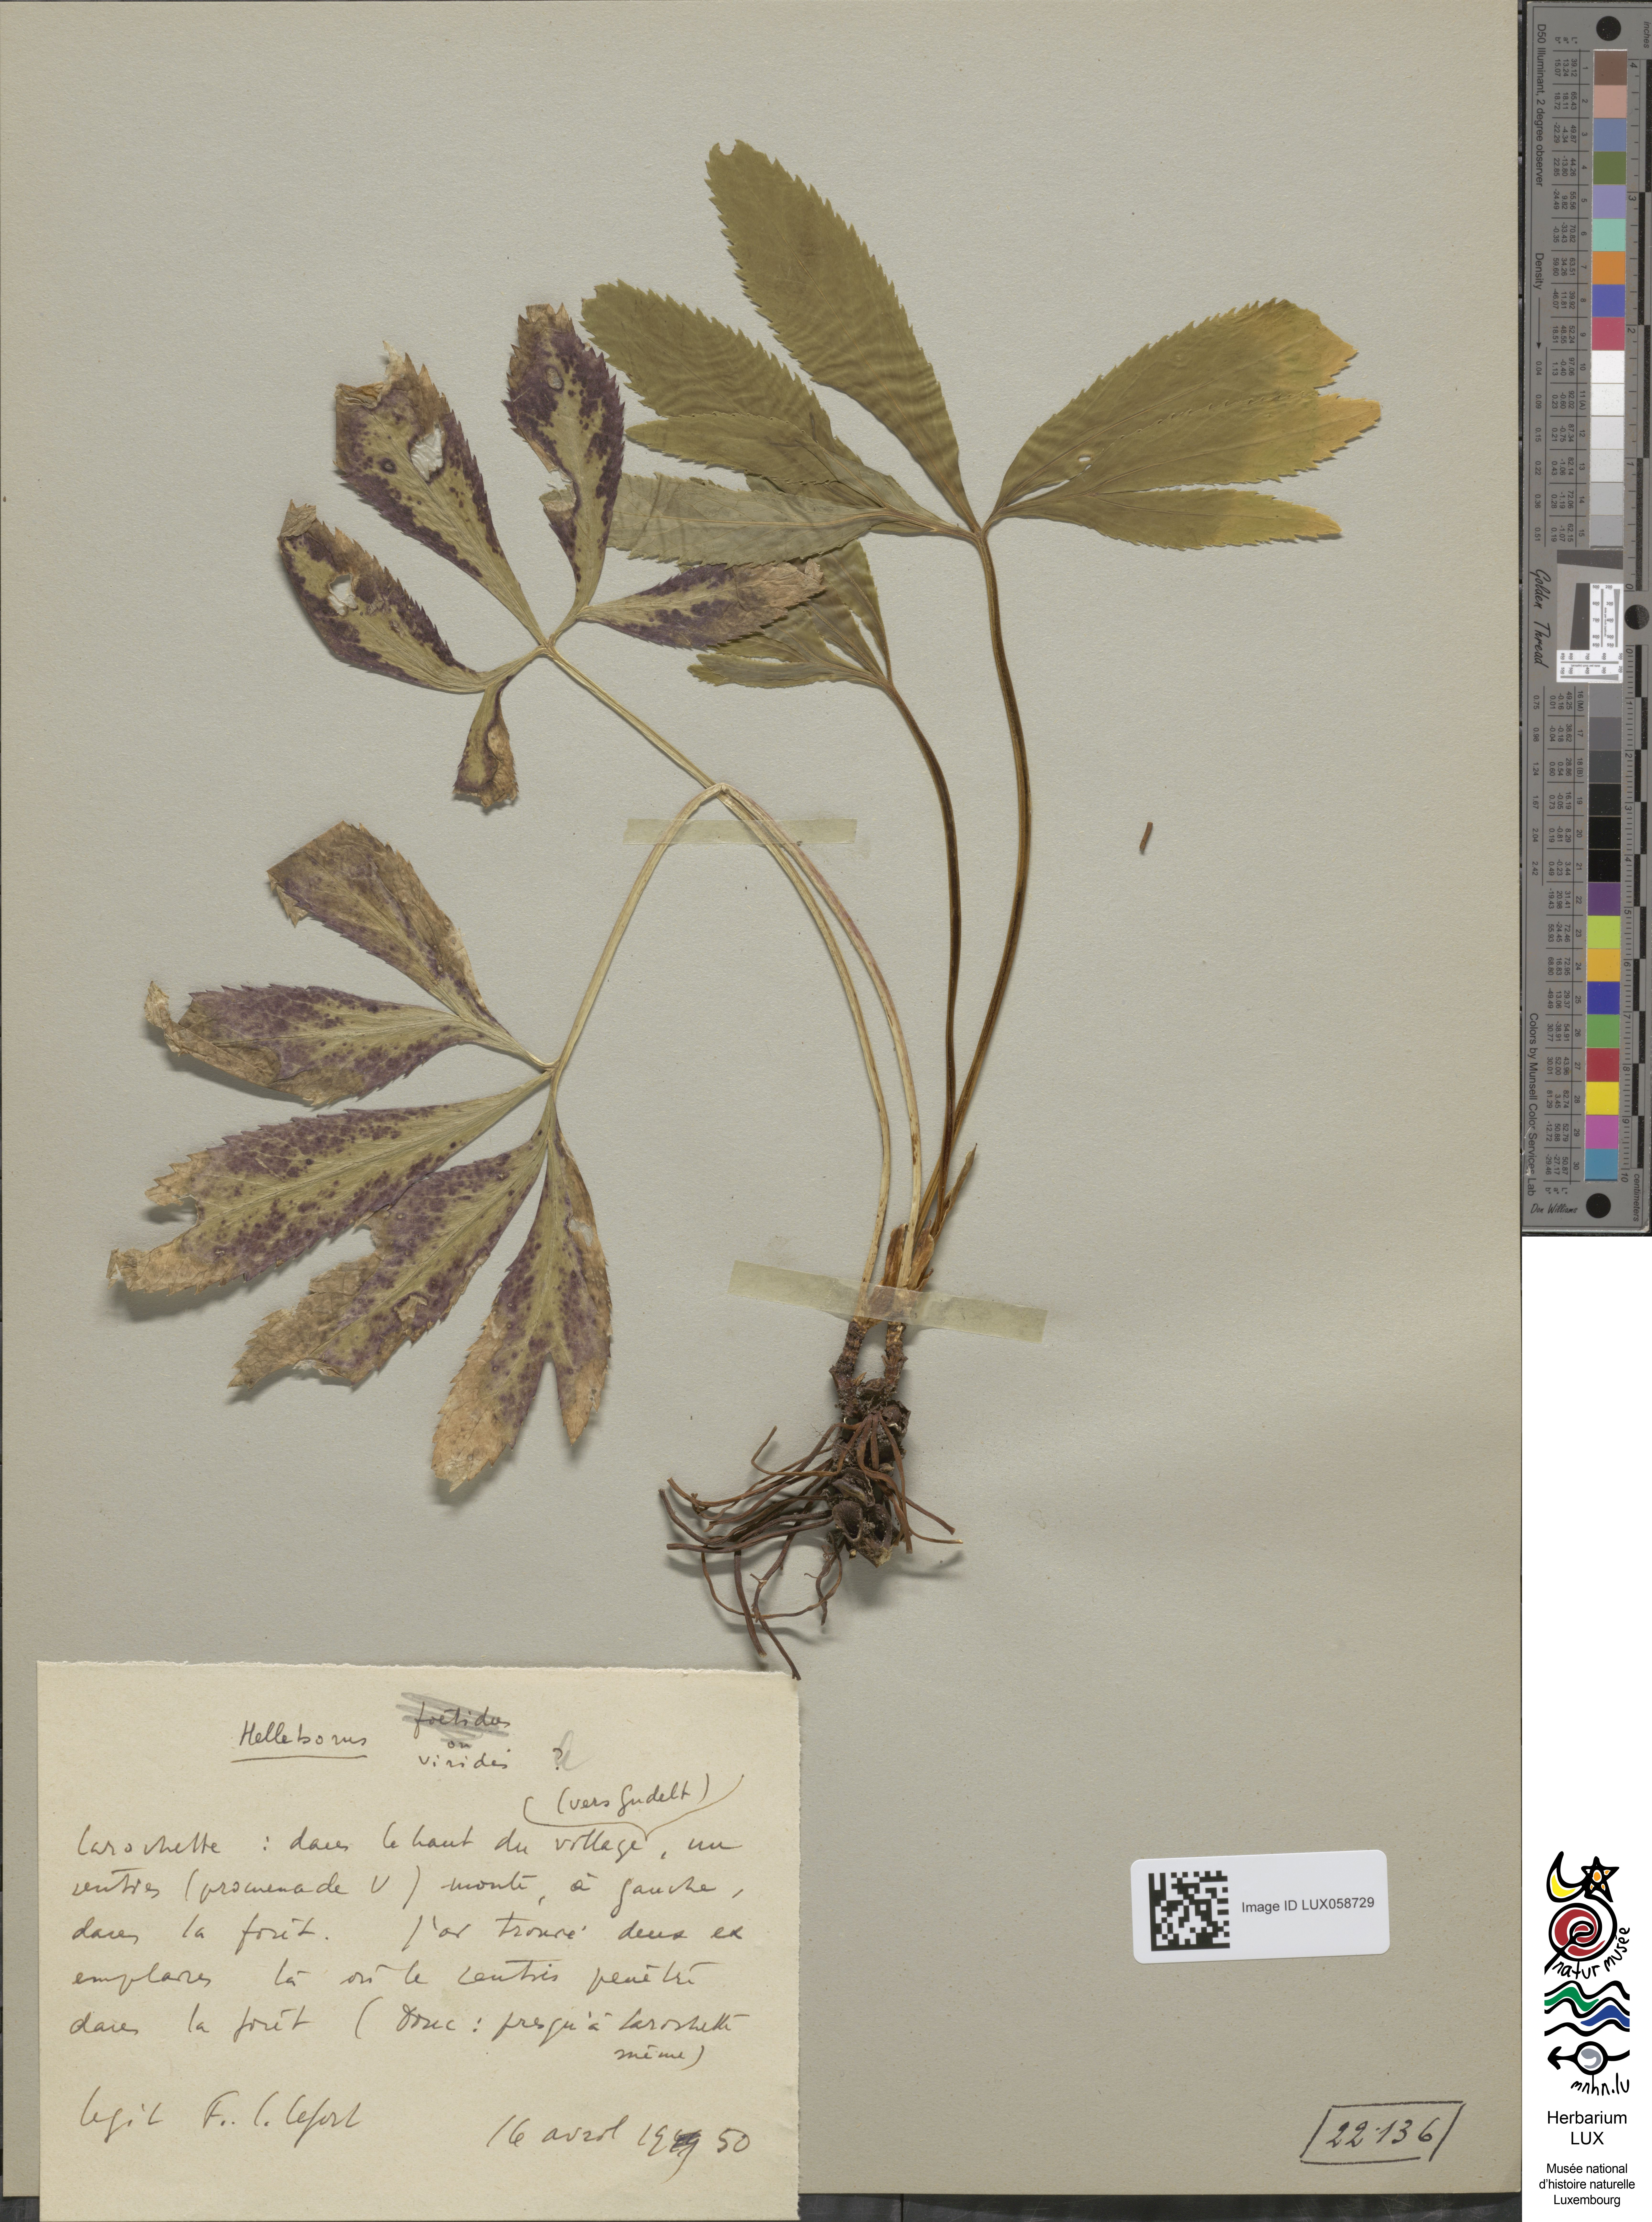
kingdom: Plantae
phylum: Tracheophyta
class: Magnoliopsida
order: Ranunculales
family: Ranunculaceae
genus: Helleborus
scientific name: Helleborus viridis
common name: Green hellebore
